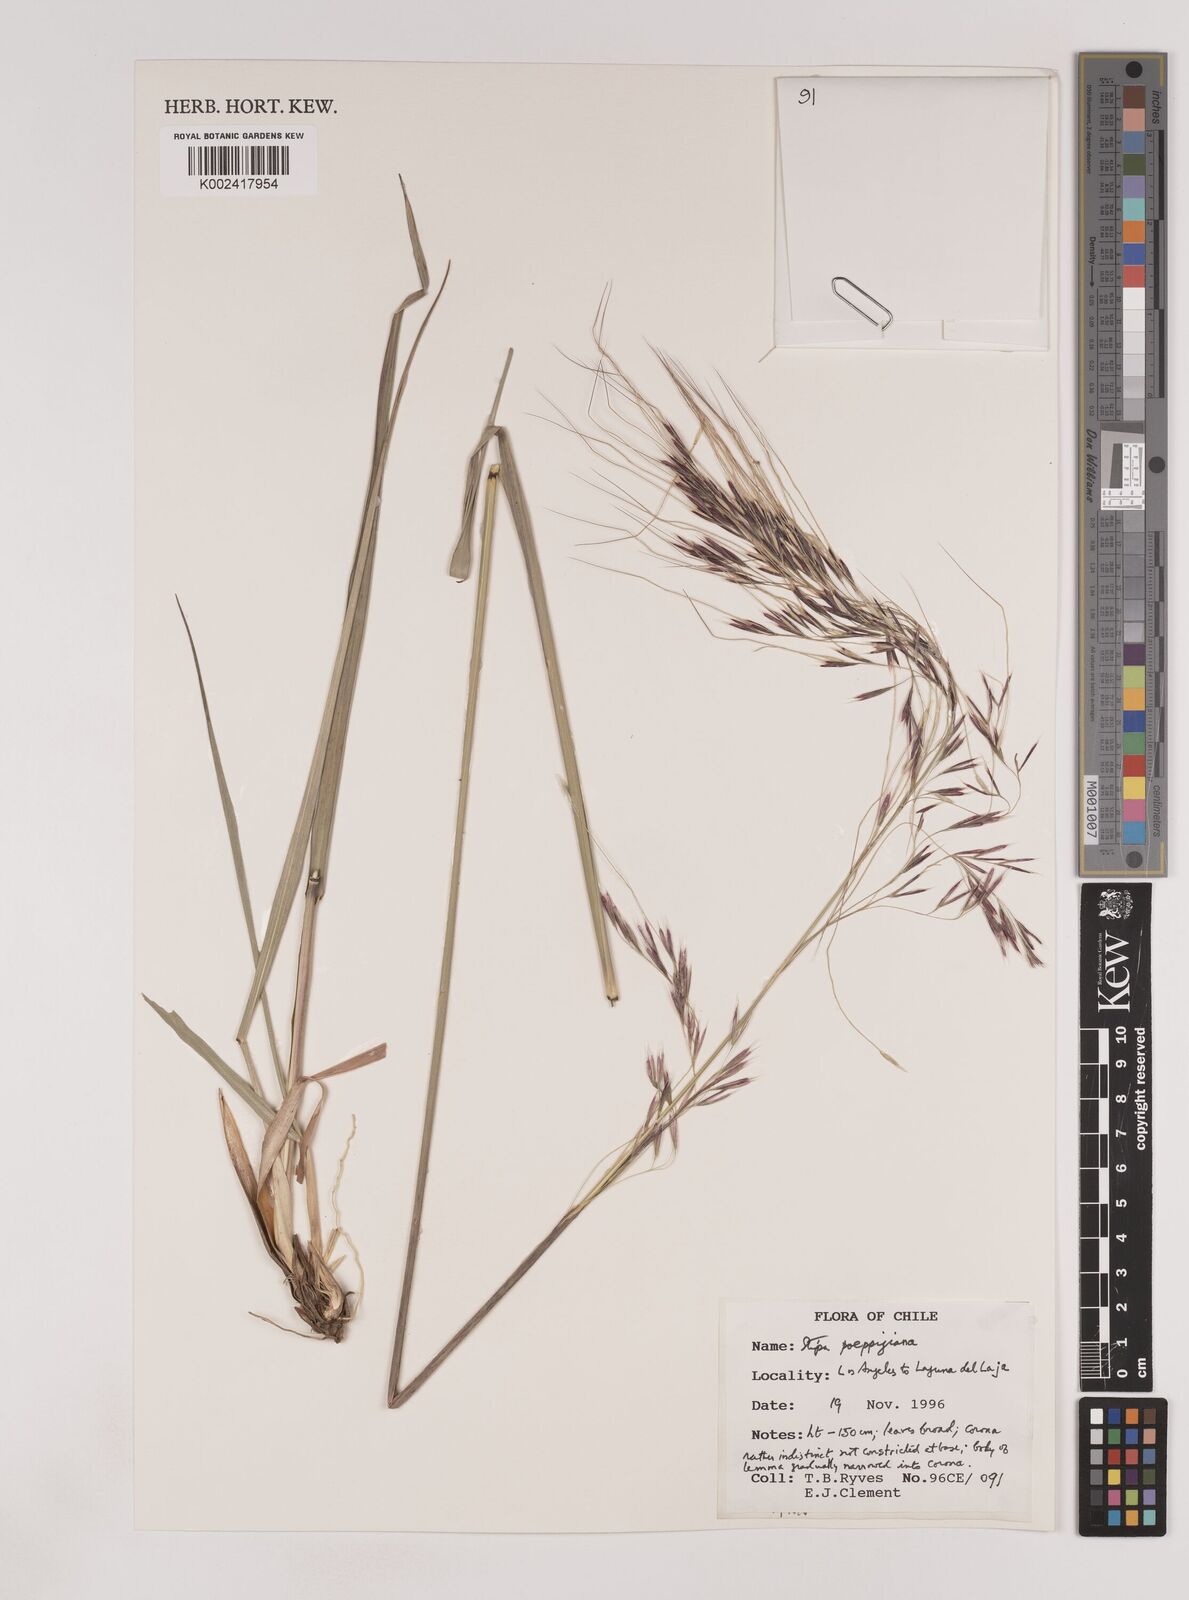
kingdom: Plantae
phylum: Tracheophyta
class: Liliopsida
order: Poales
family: Poaceae
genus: Nassella
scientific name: Nassella poeppigiana
